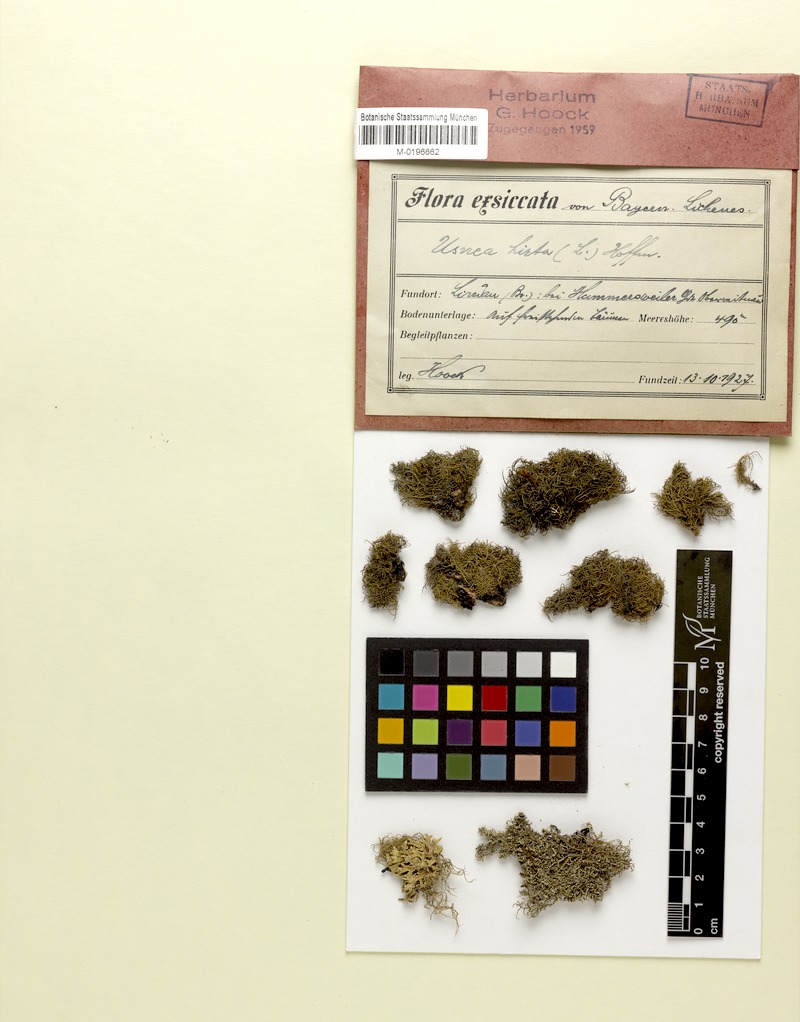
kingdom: Fungi
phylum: Ascomycota
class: Lecanoromycetes
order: Lecanorales
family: Parmeliaceae
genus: Usnea
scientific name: Usnea hirta
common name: Bristly beard lichen
